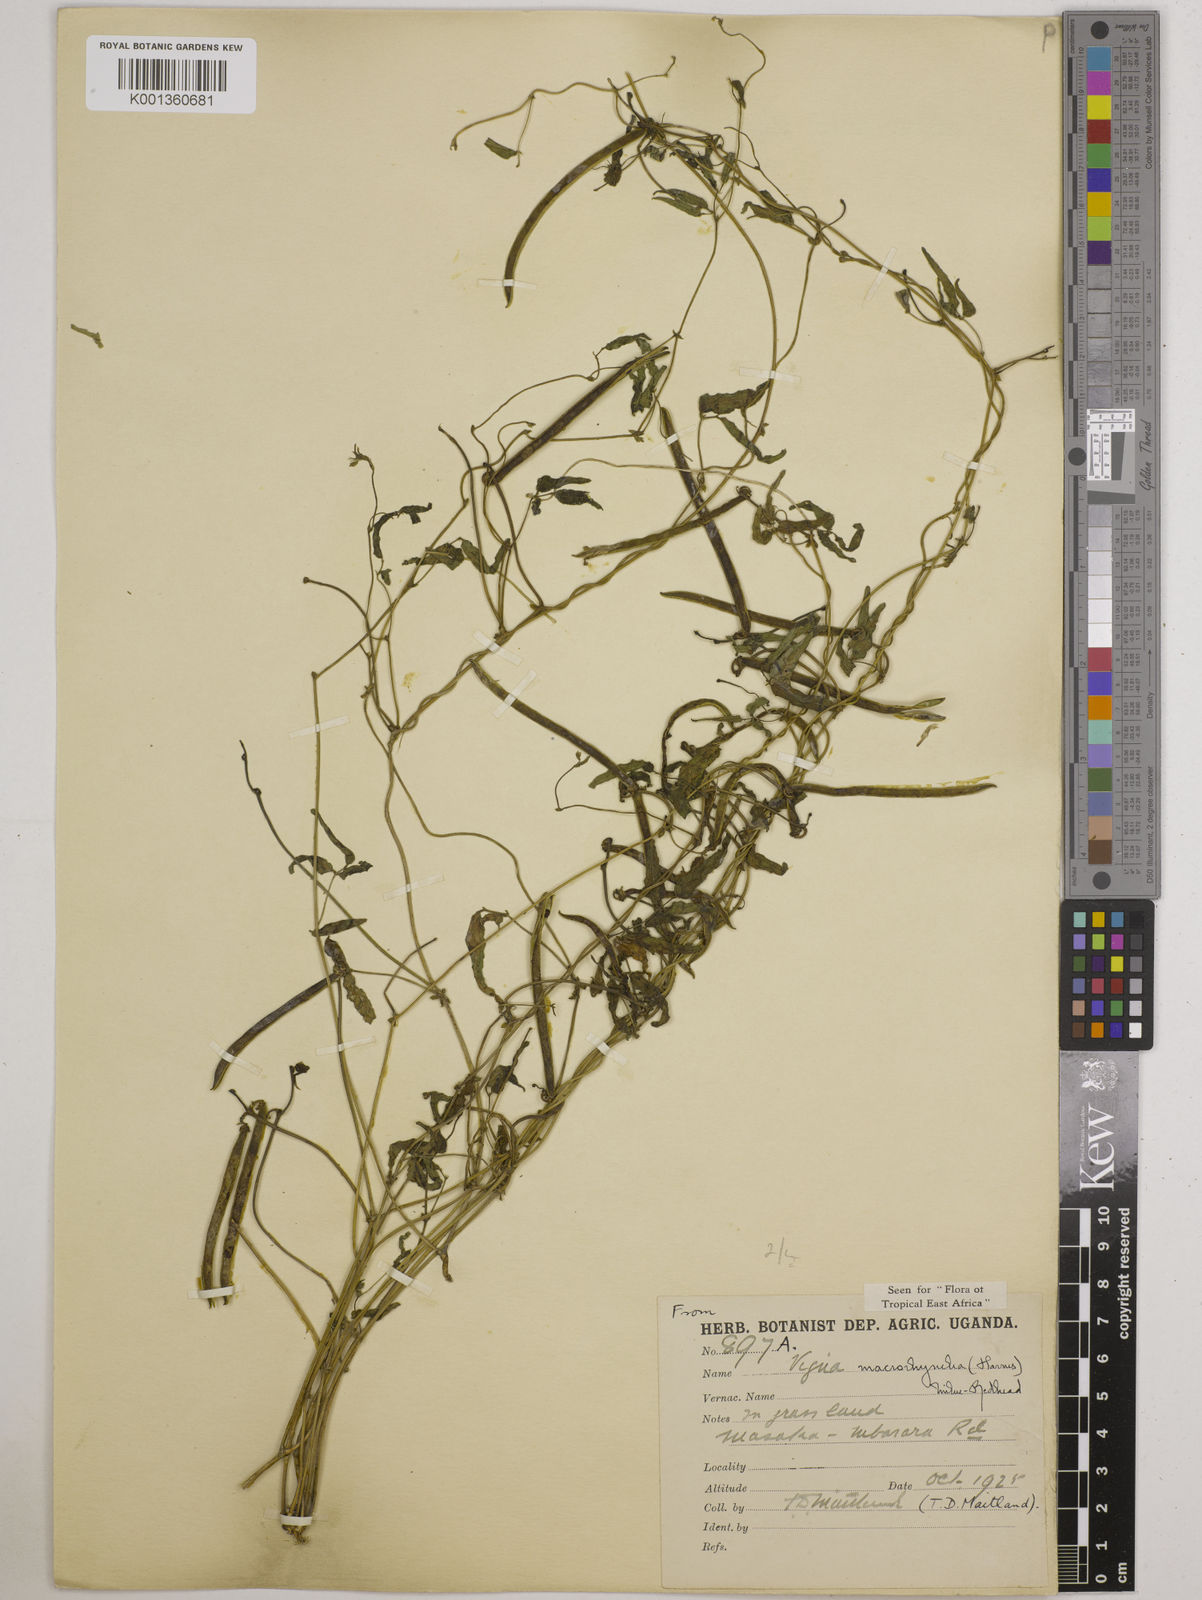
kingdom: Plantae
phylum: Tracheophyta
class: Magnoliopsida
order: Fabales
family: Fabaceae
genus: Wajira
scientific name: Wajira grahamiana
